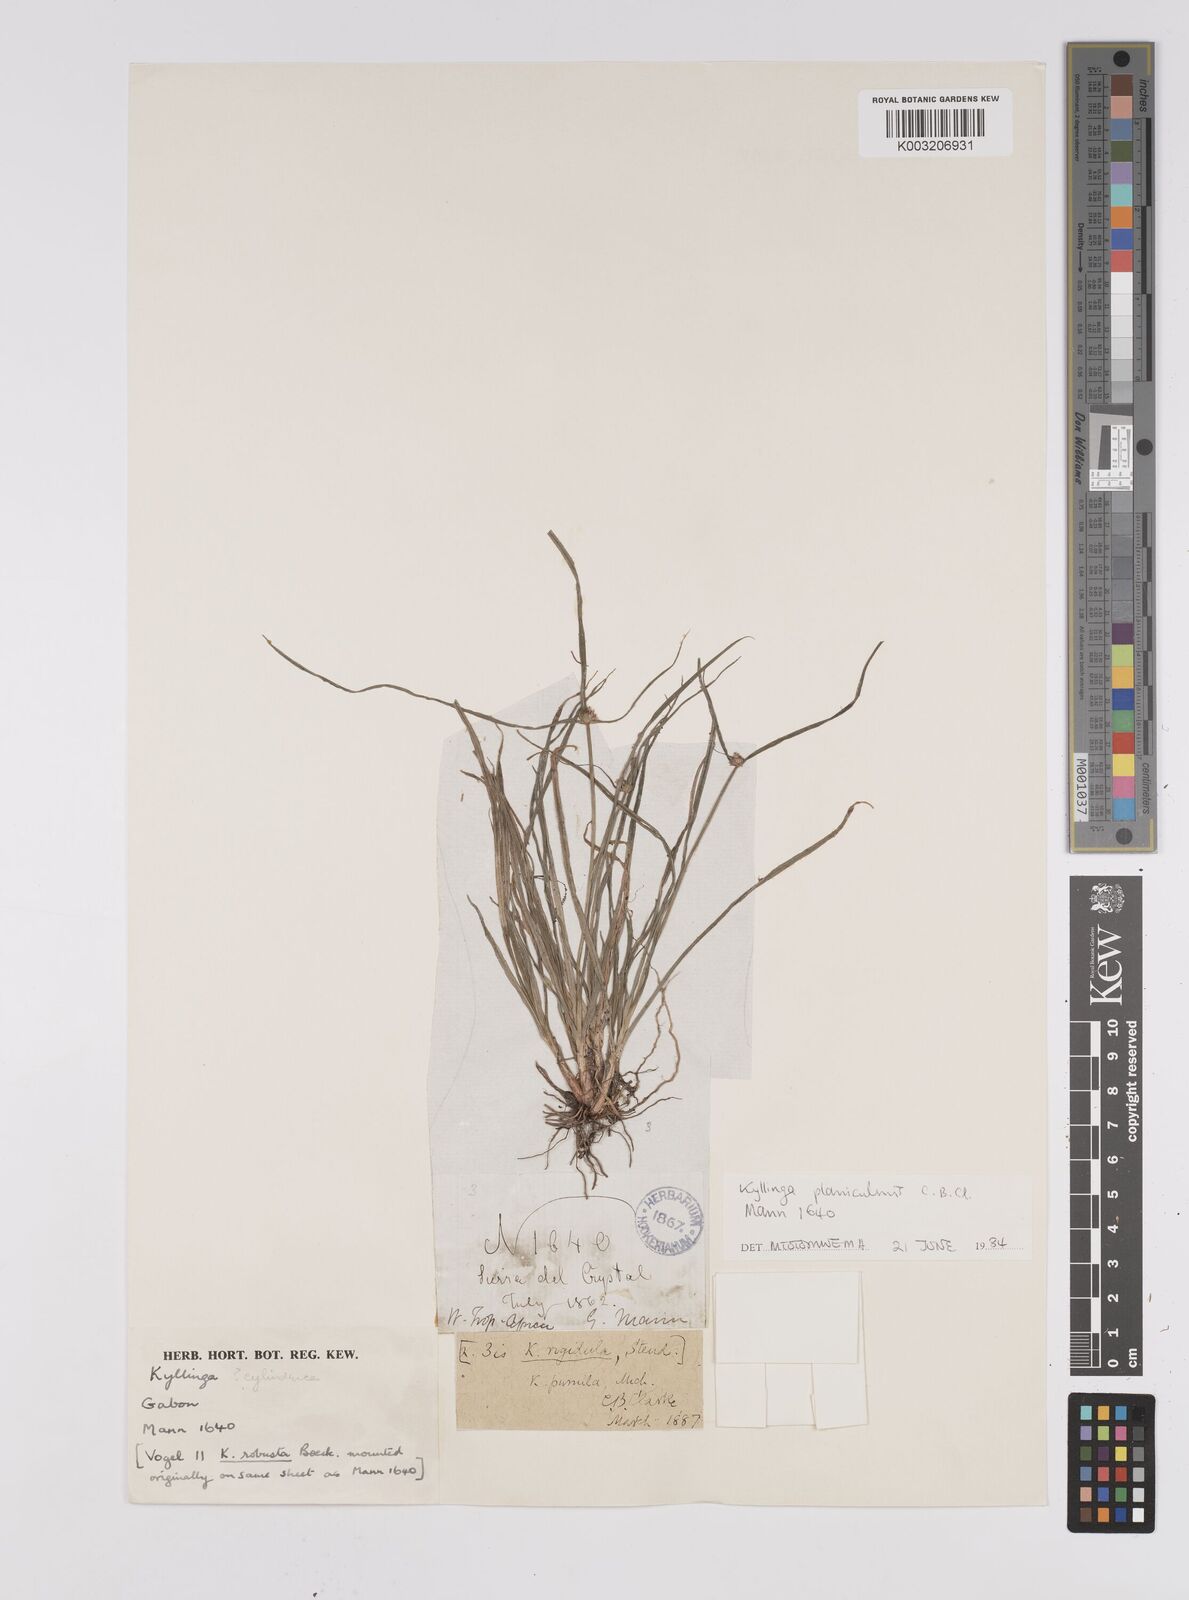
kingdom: Plantae
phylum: Tracheophyta
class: Liliopsida
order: Poales
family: Cyperaceae
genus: Cyperus
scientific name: Cyperus hortensis
